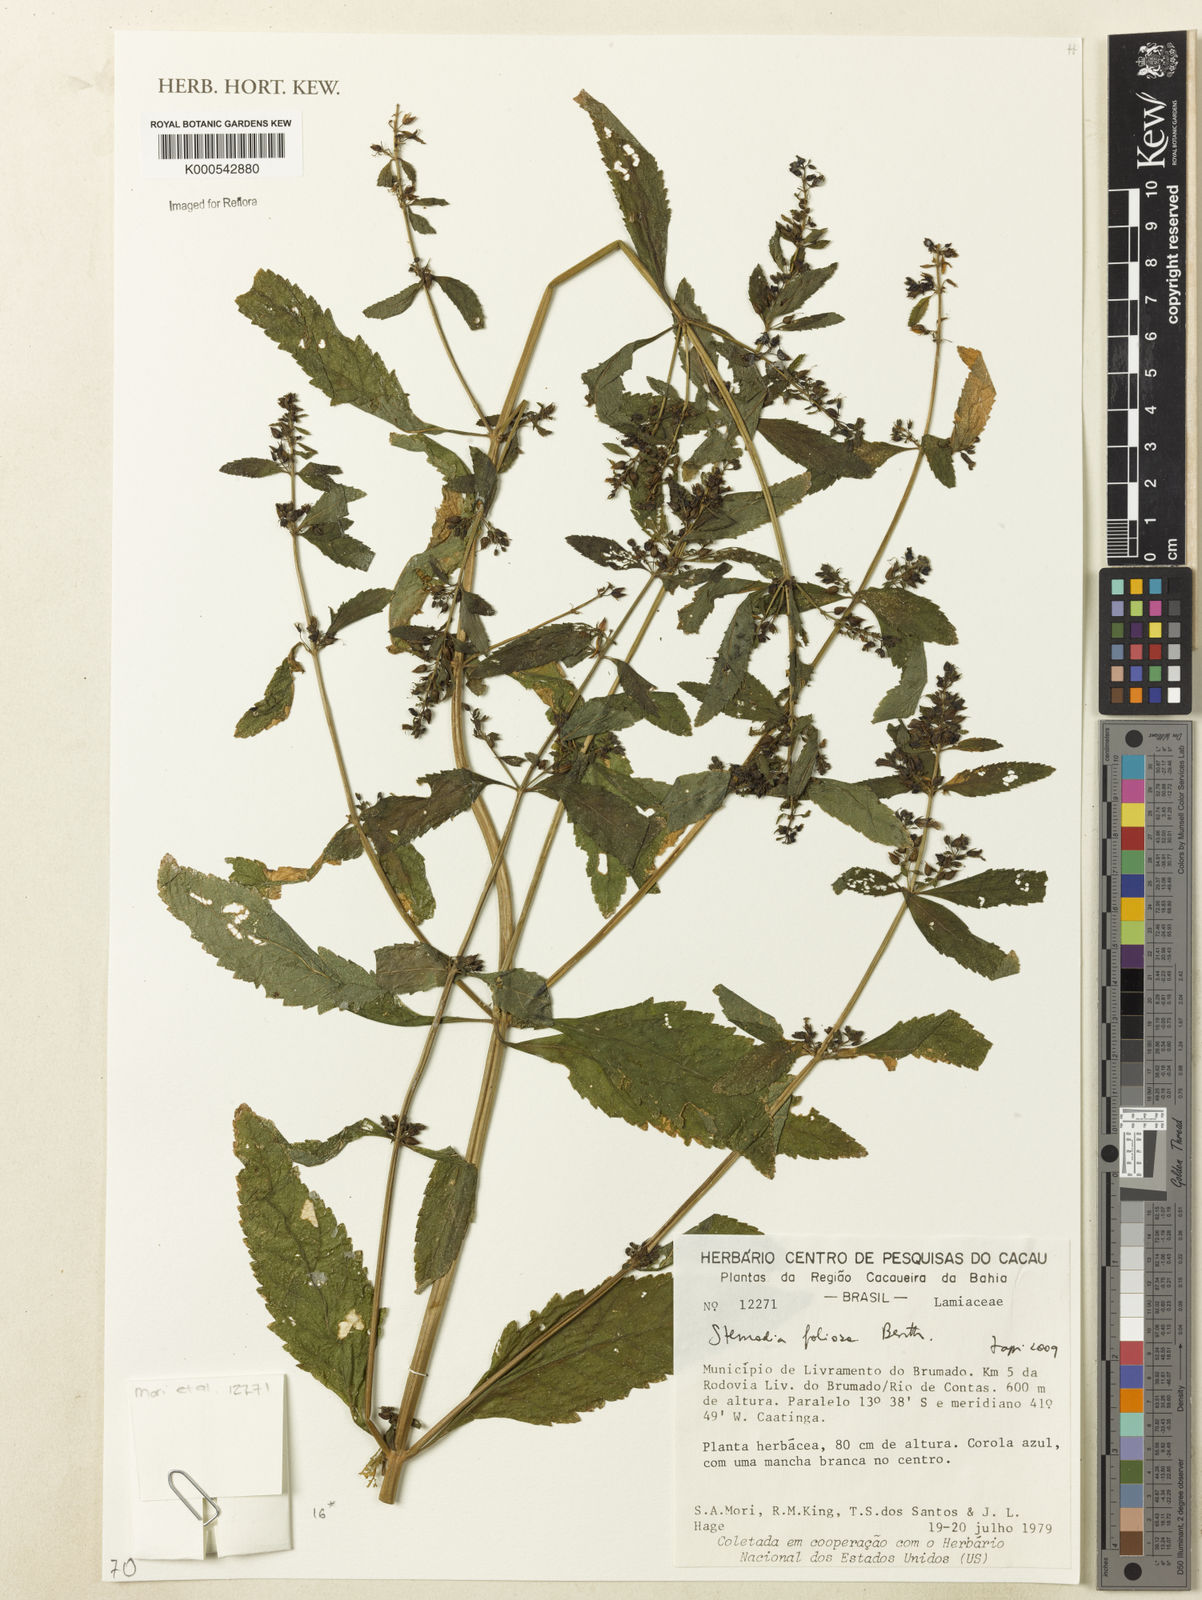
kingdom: Plantae
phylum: Tracheophyta
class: Magnoliopsida
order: Lamiales
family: Plantaginaceae
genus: Stemodia
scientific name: Stemodia foliosa
